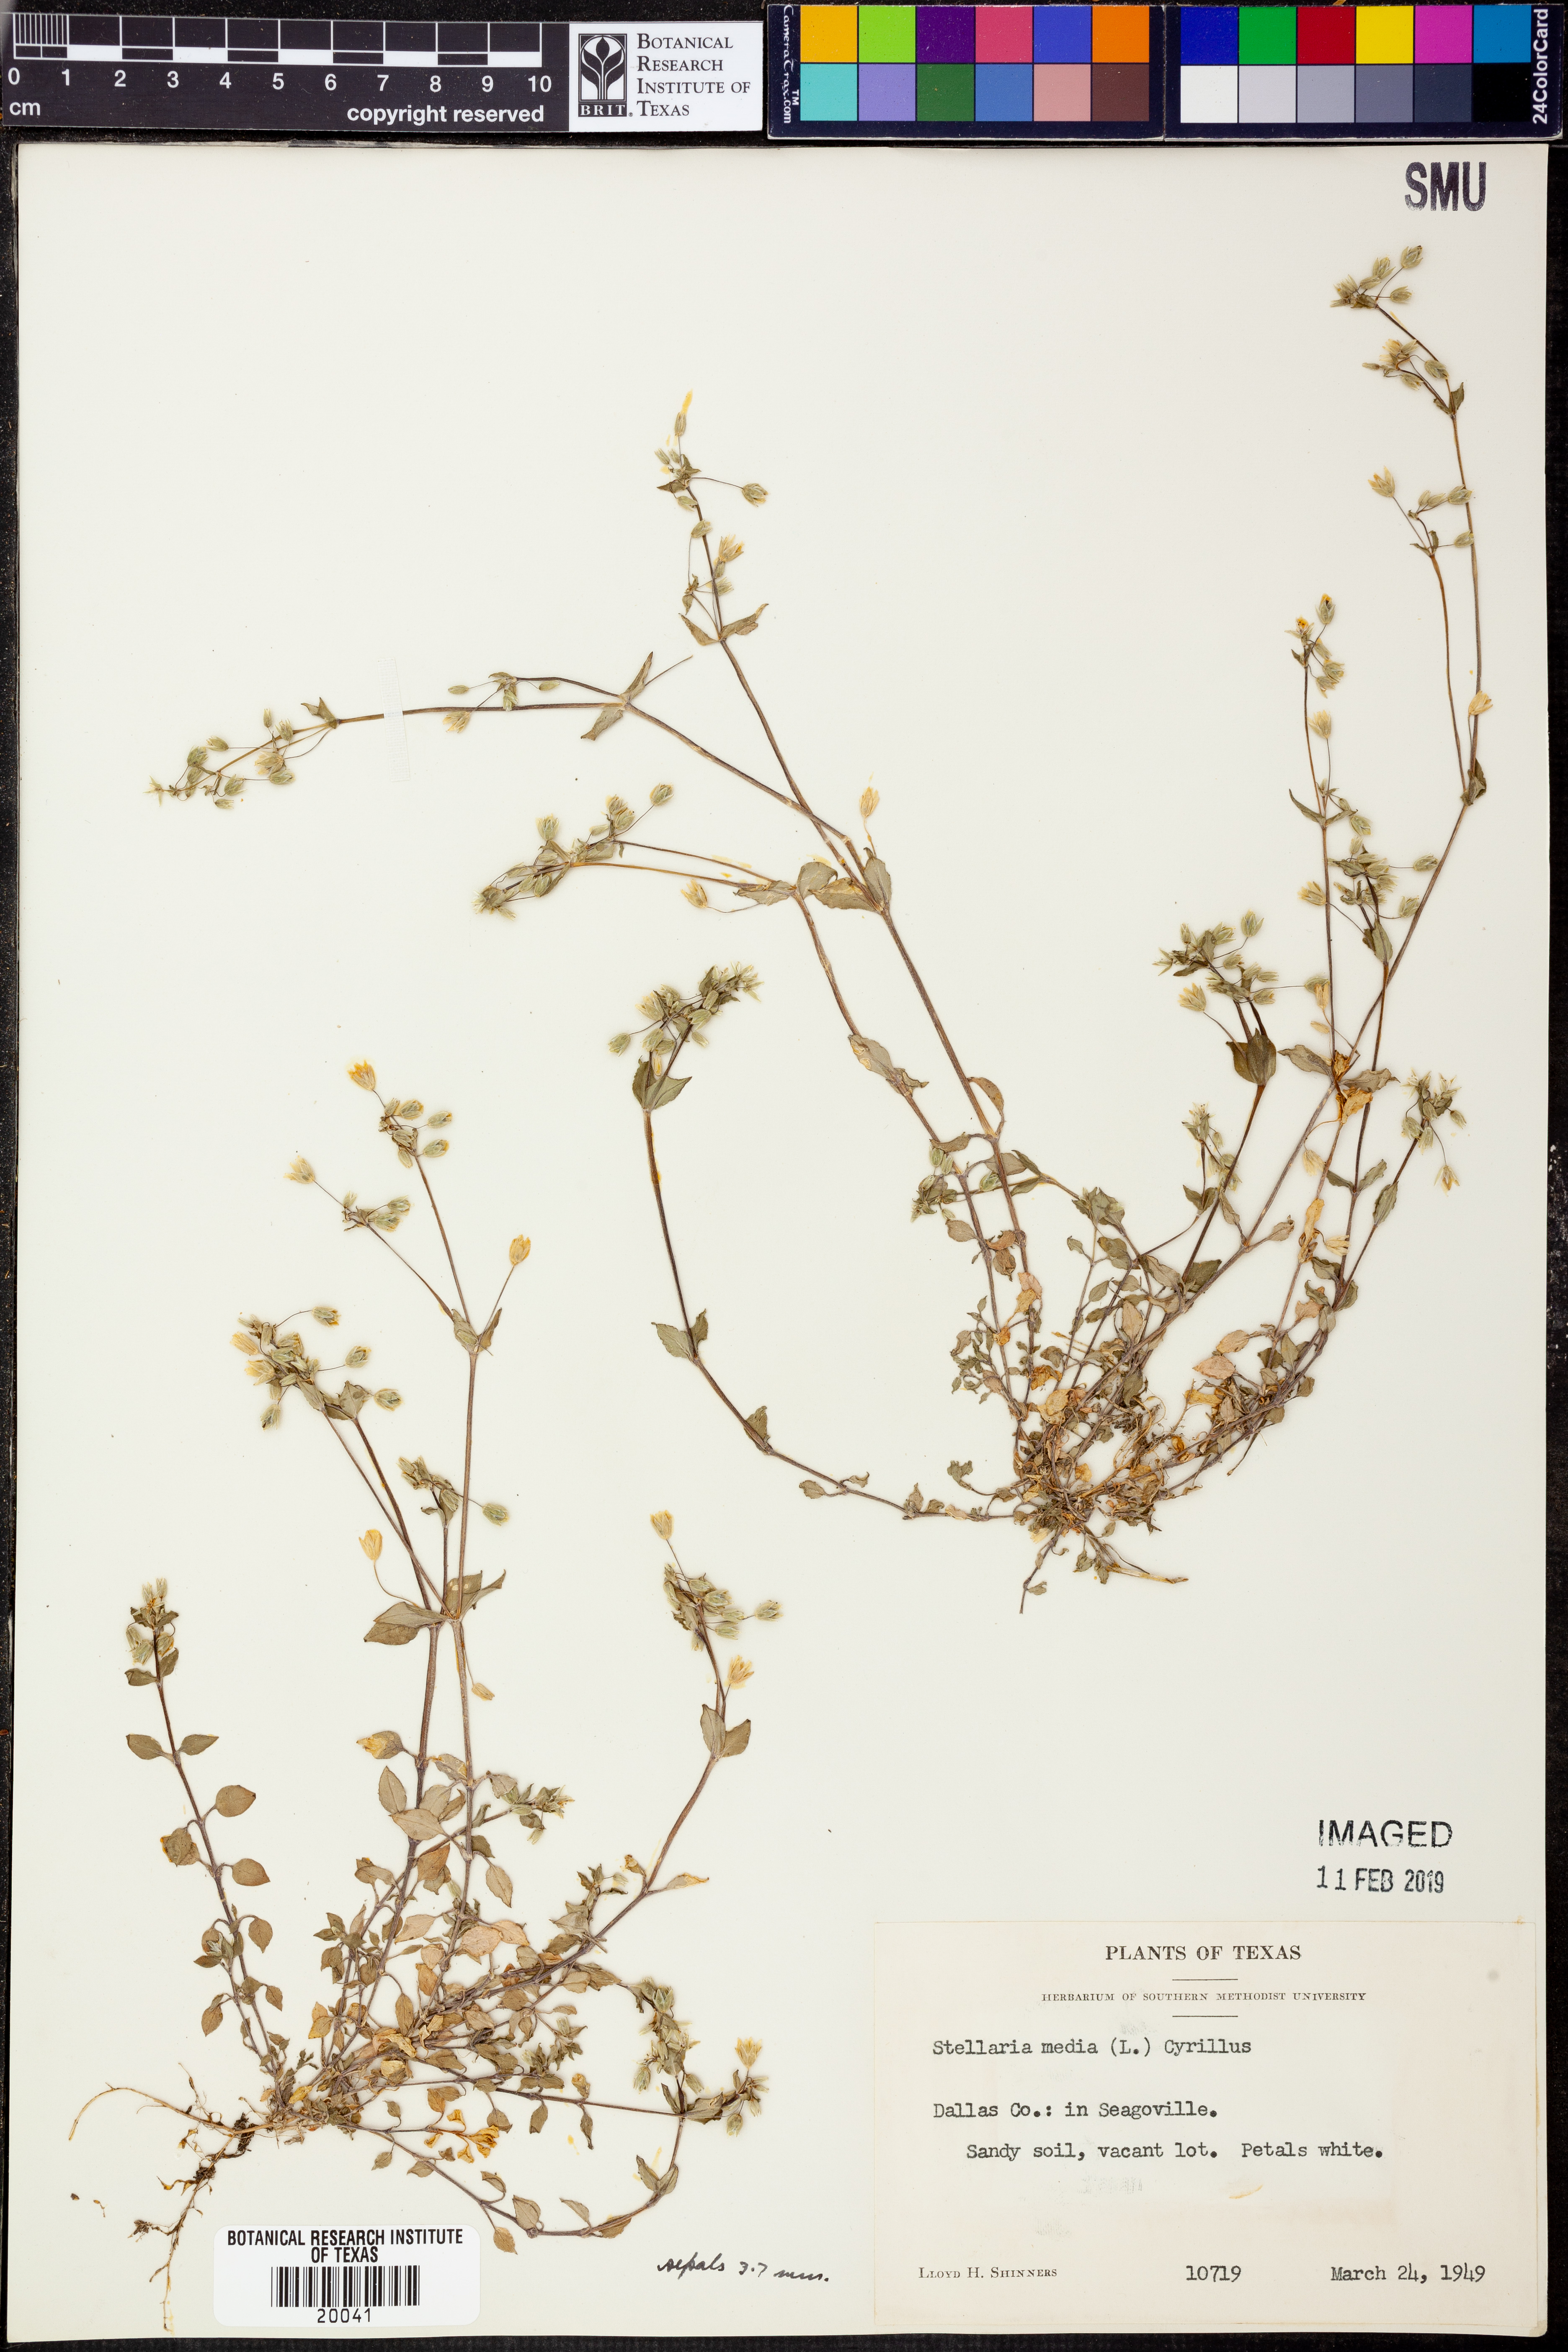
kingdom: Plantae
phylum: Tracheophyta
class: Magnoliopsida
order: Caryophyllales
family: Caryophyllaceae
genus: Stellaria
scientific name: Stellaria media
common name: Common chickweed
